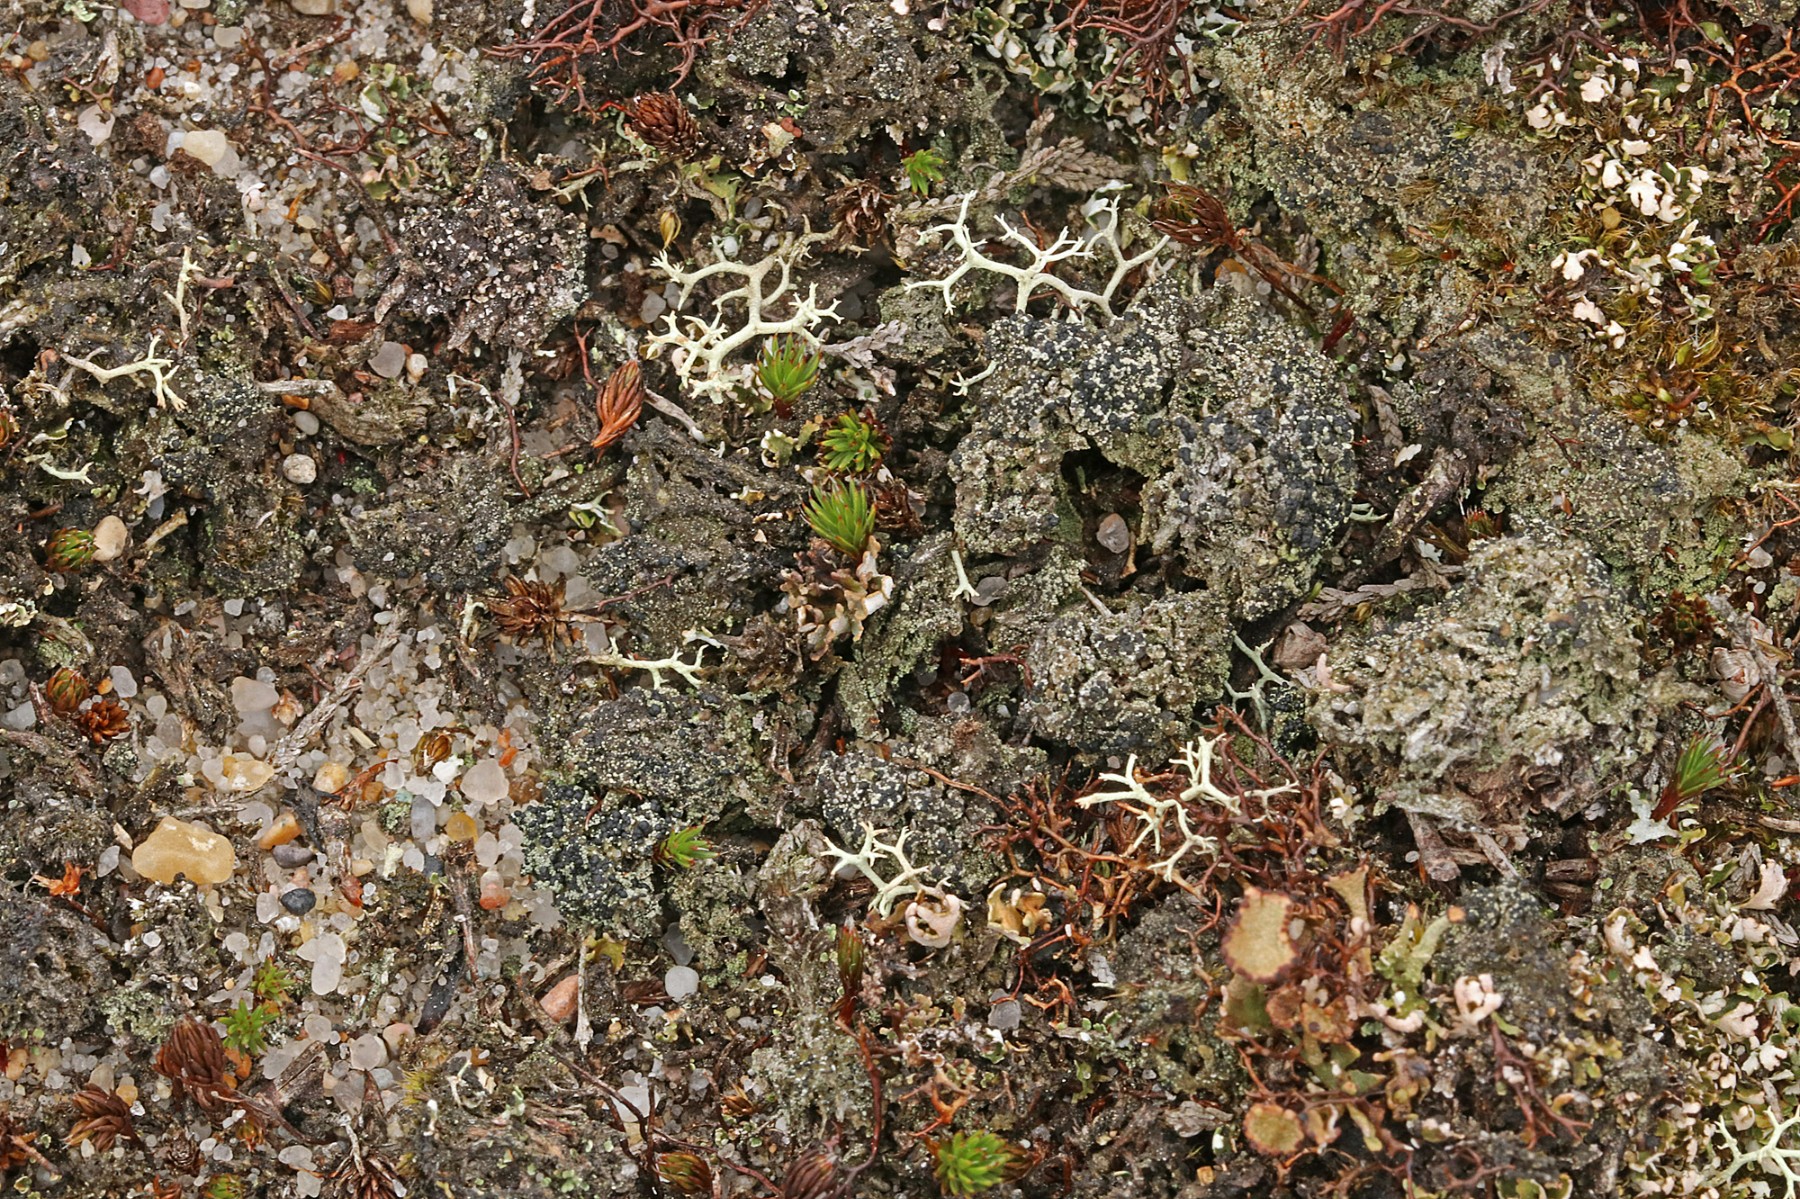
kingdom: Fungi
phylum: Ascomycota
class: Lecanoromycetes
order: Lecanorales
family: Byssolomataceae
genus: Micarea
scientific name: Micarea lignaria
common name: tørve-knaplav
